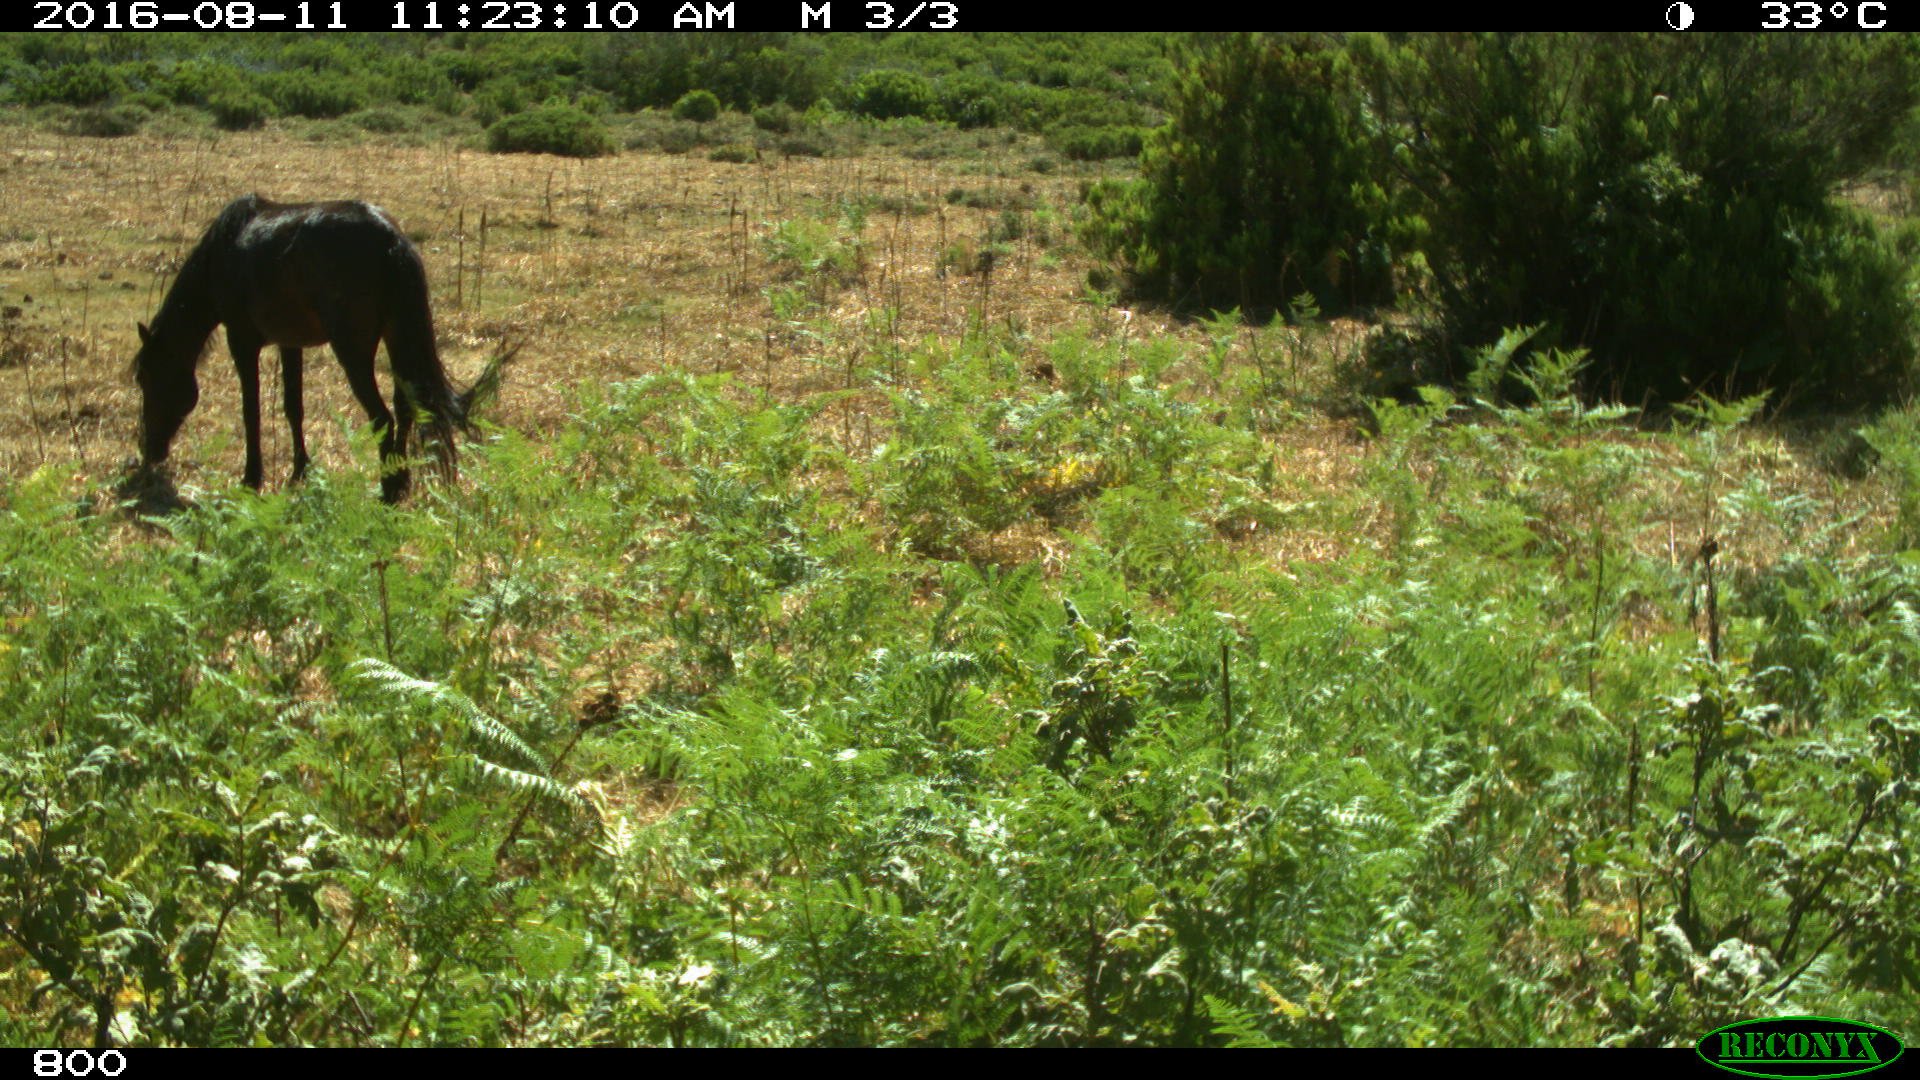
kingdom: Animalia
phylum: Chordata
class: Mammalia
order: Perissodactyla
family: Equidae
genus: Equus
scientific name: Equus caballus
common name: Horse
